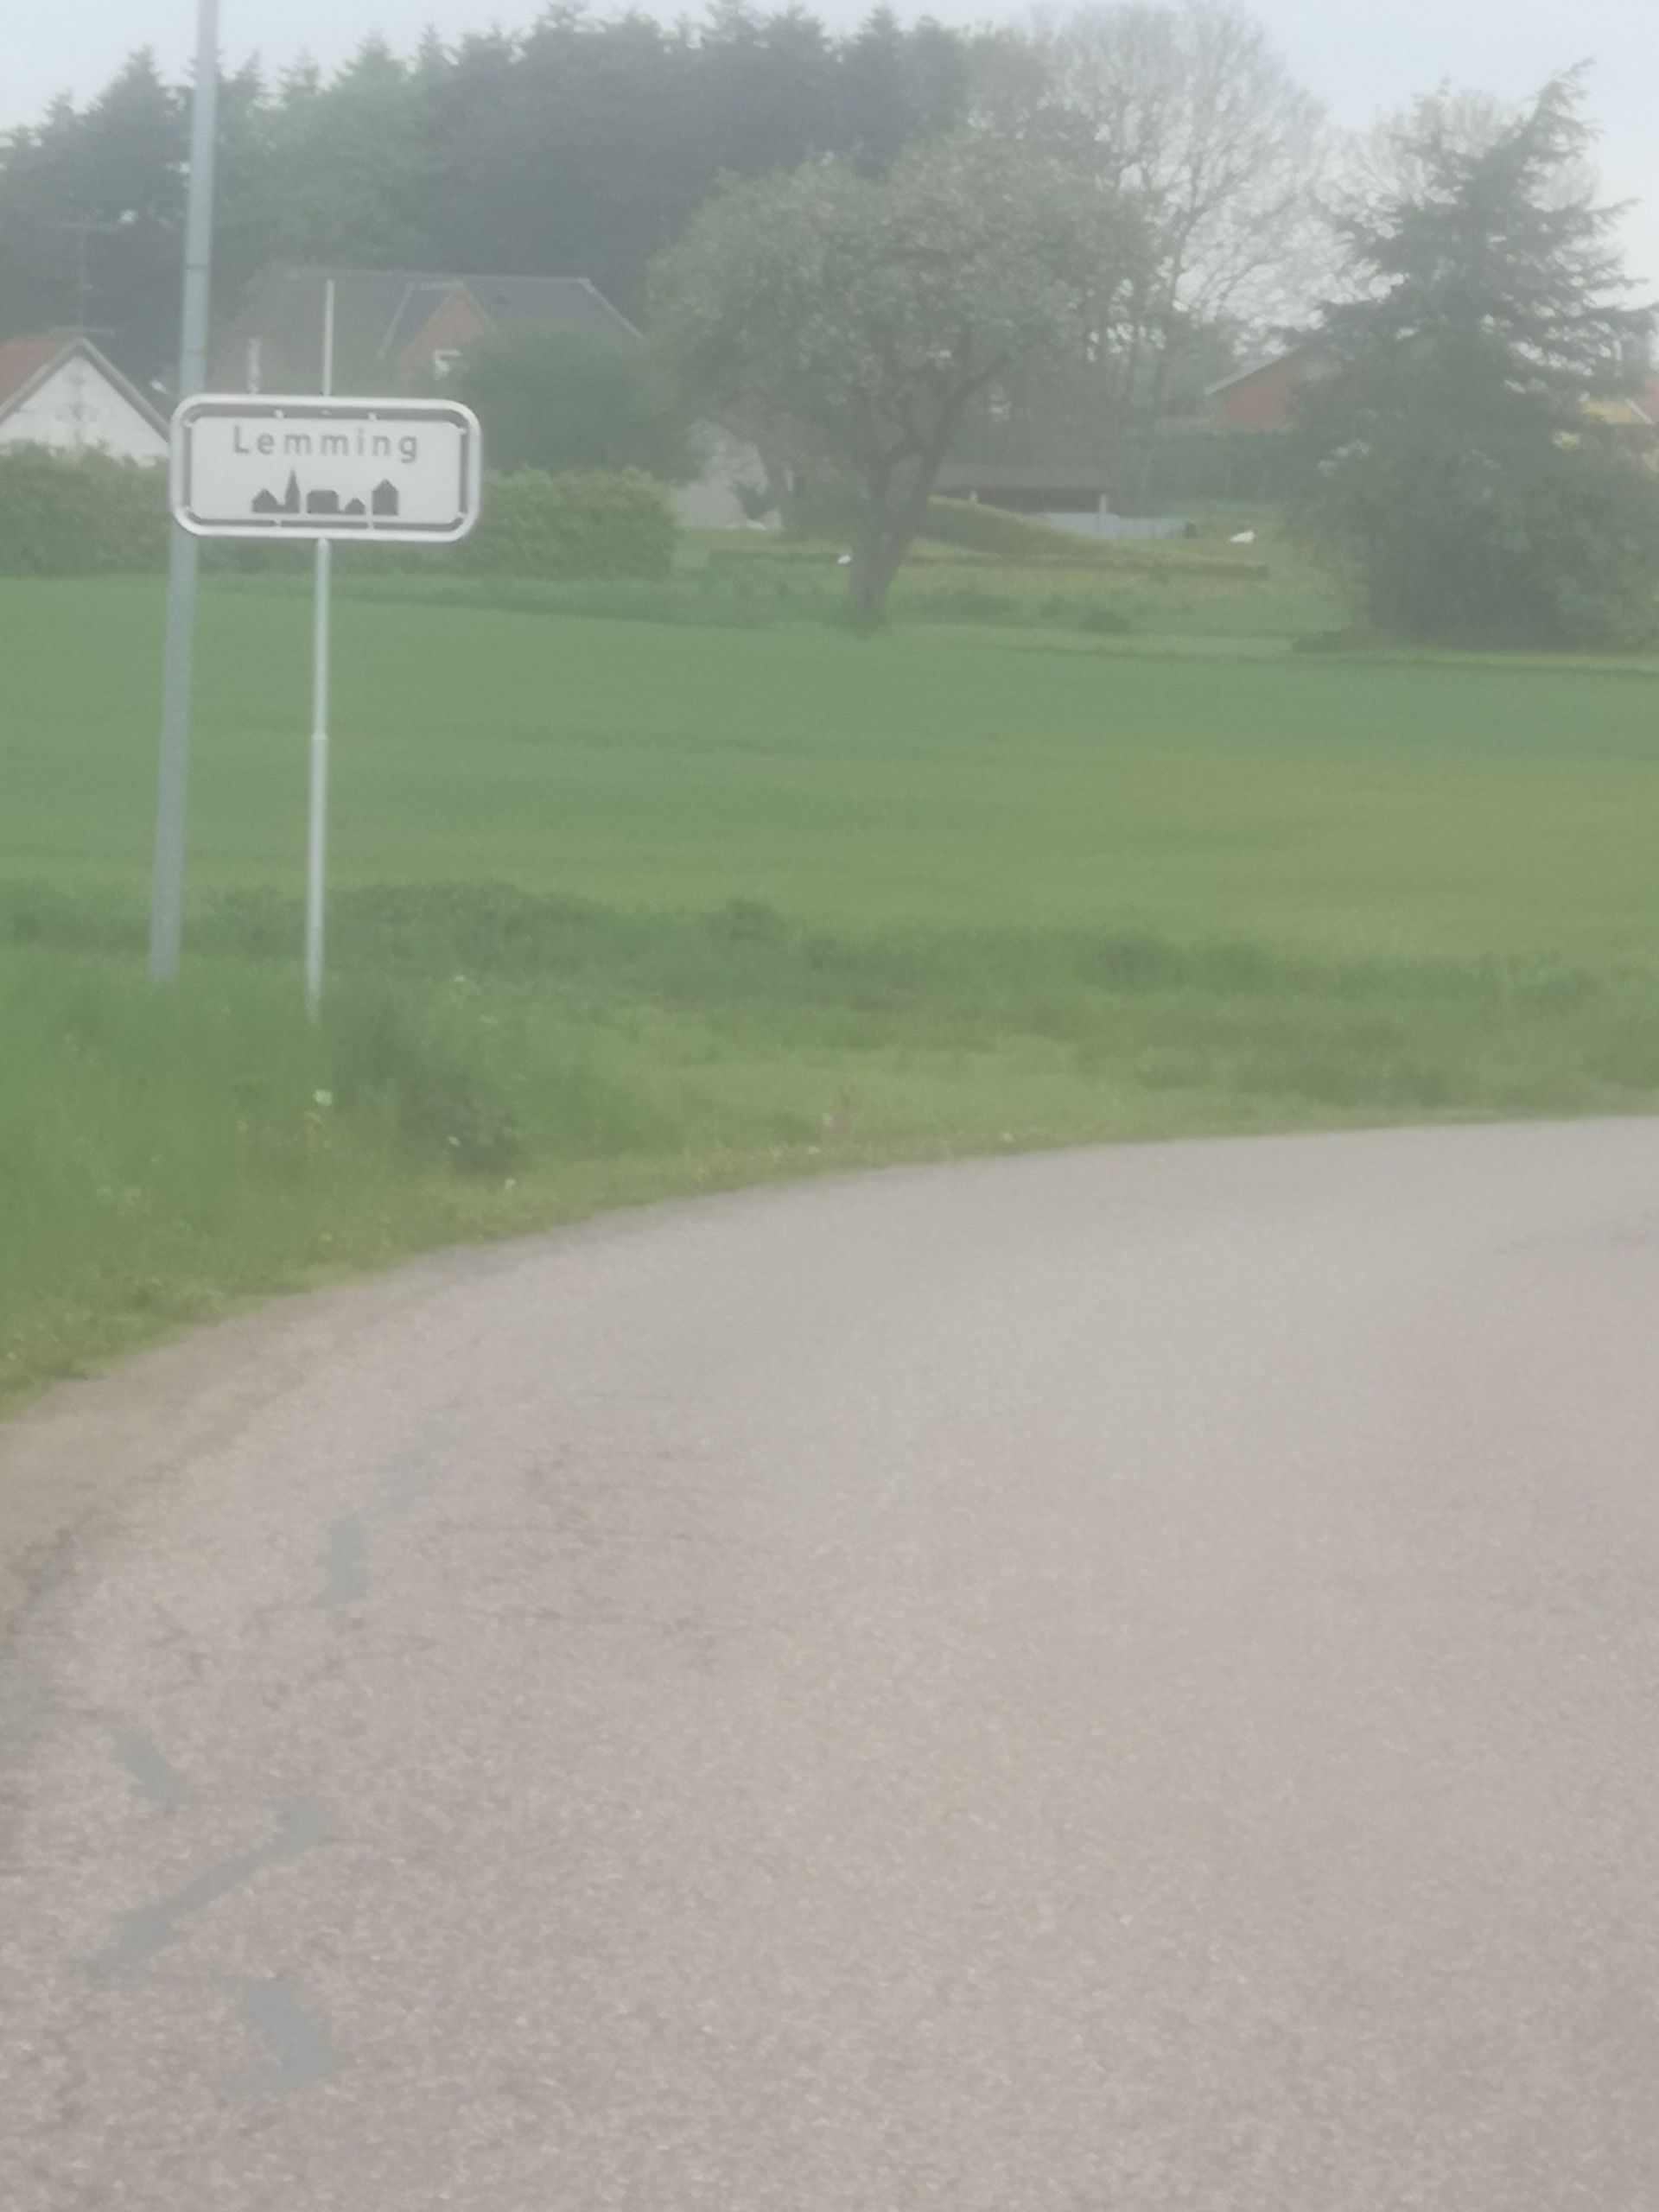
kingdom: Animalia
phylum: Chordata
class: Mammalia
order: Lagomorpha
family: Leporidae
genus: Lepus
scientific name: Lepus europaeus
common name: Hare
